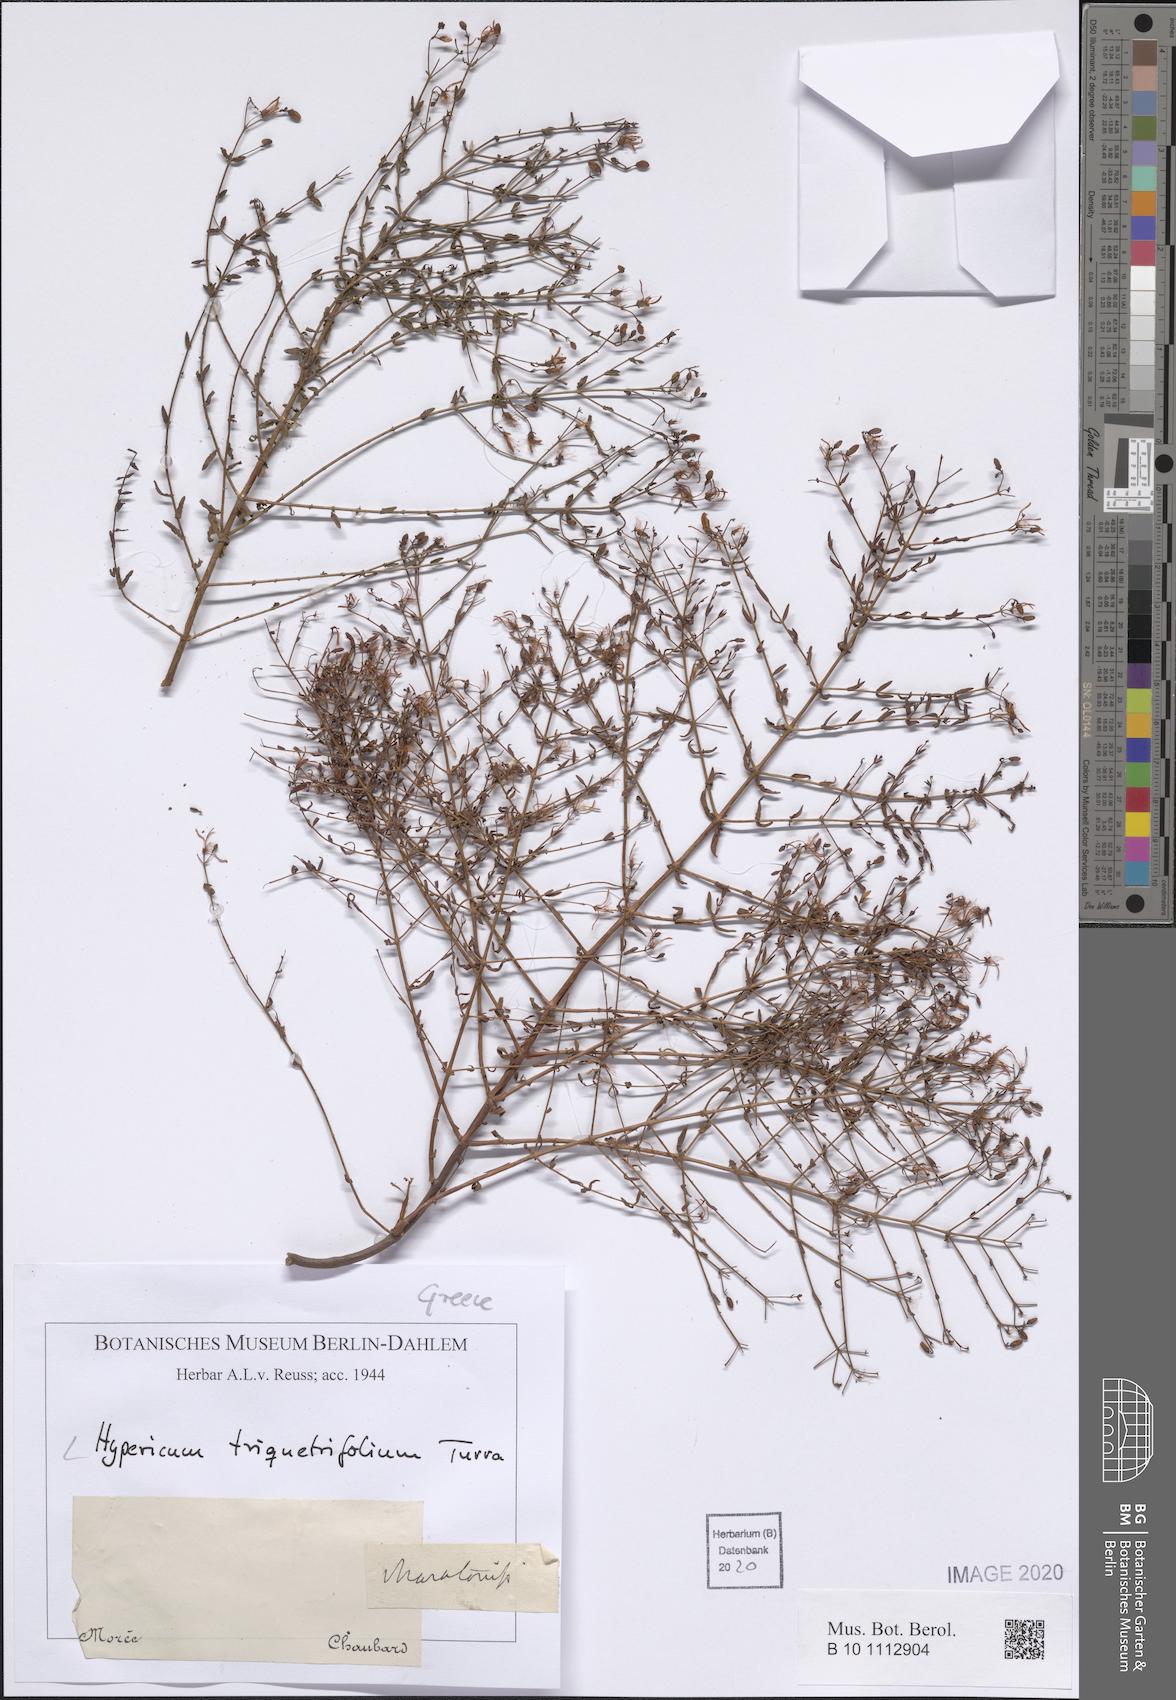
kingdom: Plantae
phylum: Tracheophyta
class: Magnoliopsida
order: Malpighiales
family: Hypericaceae
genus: Hypericum
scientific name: Hypericum triquetrifolium
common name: Tangled hypericum
